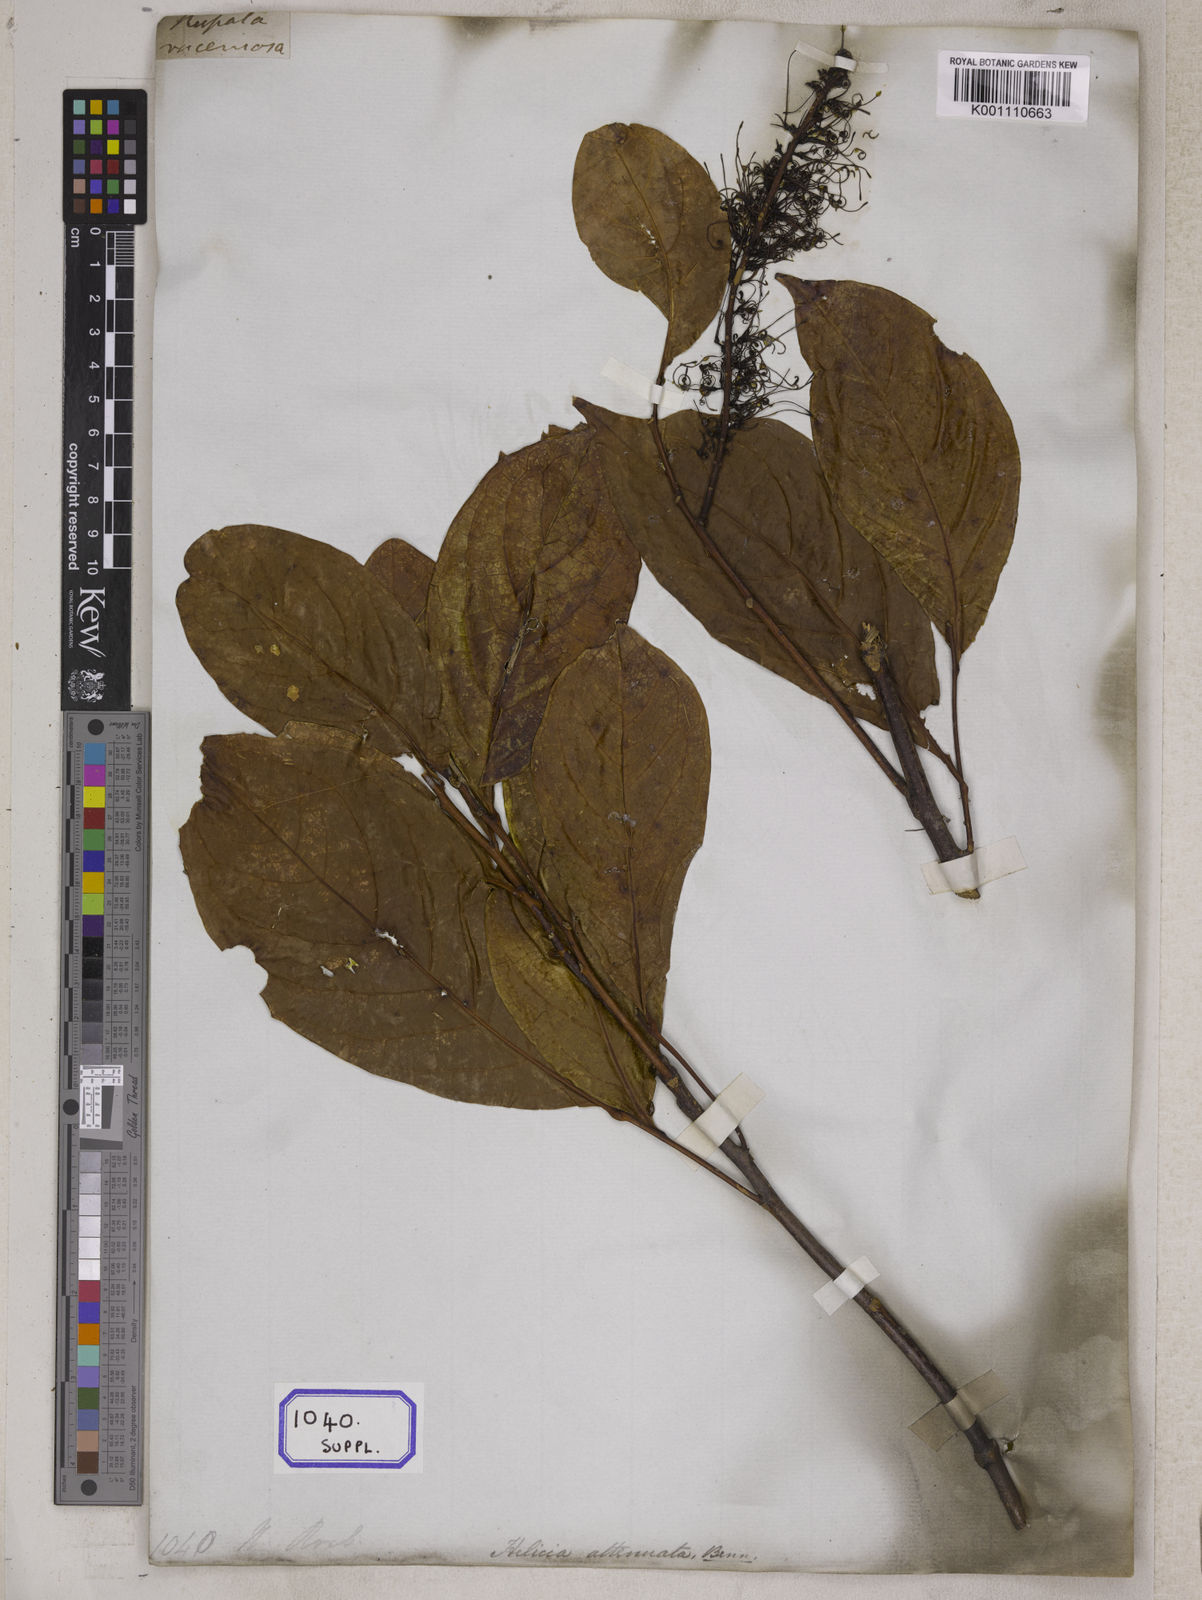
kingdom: Plantae
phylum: Tracheophyta
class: Magnoliopsida
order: Proteales
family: Proteaceae
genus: Helicia
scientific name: Helicia attenuata
